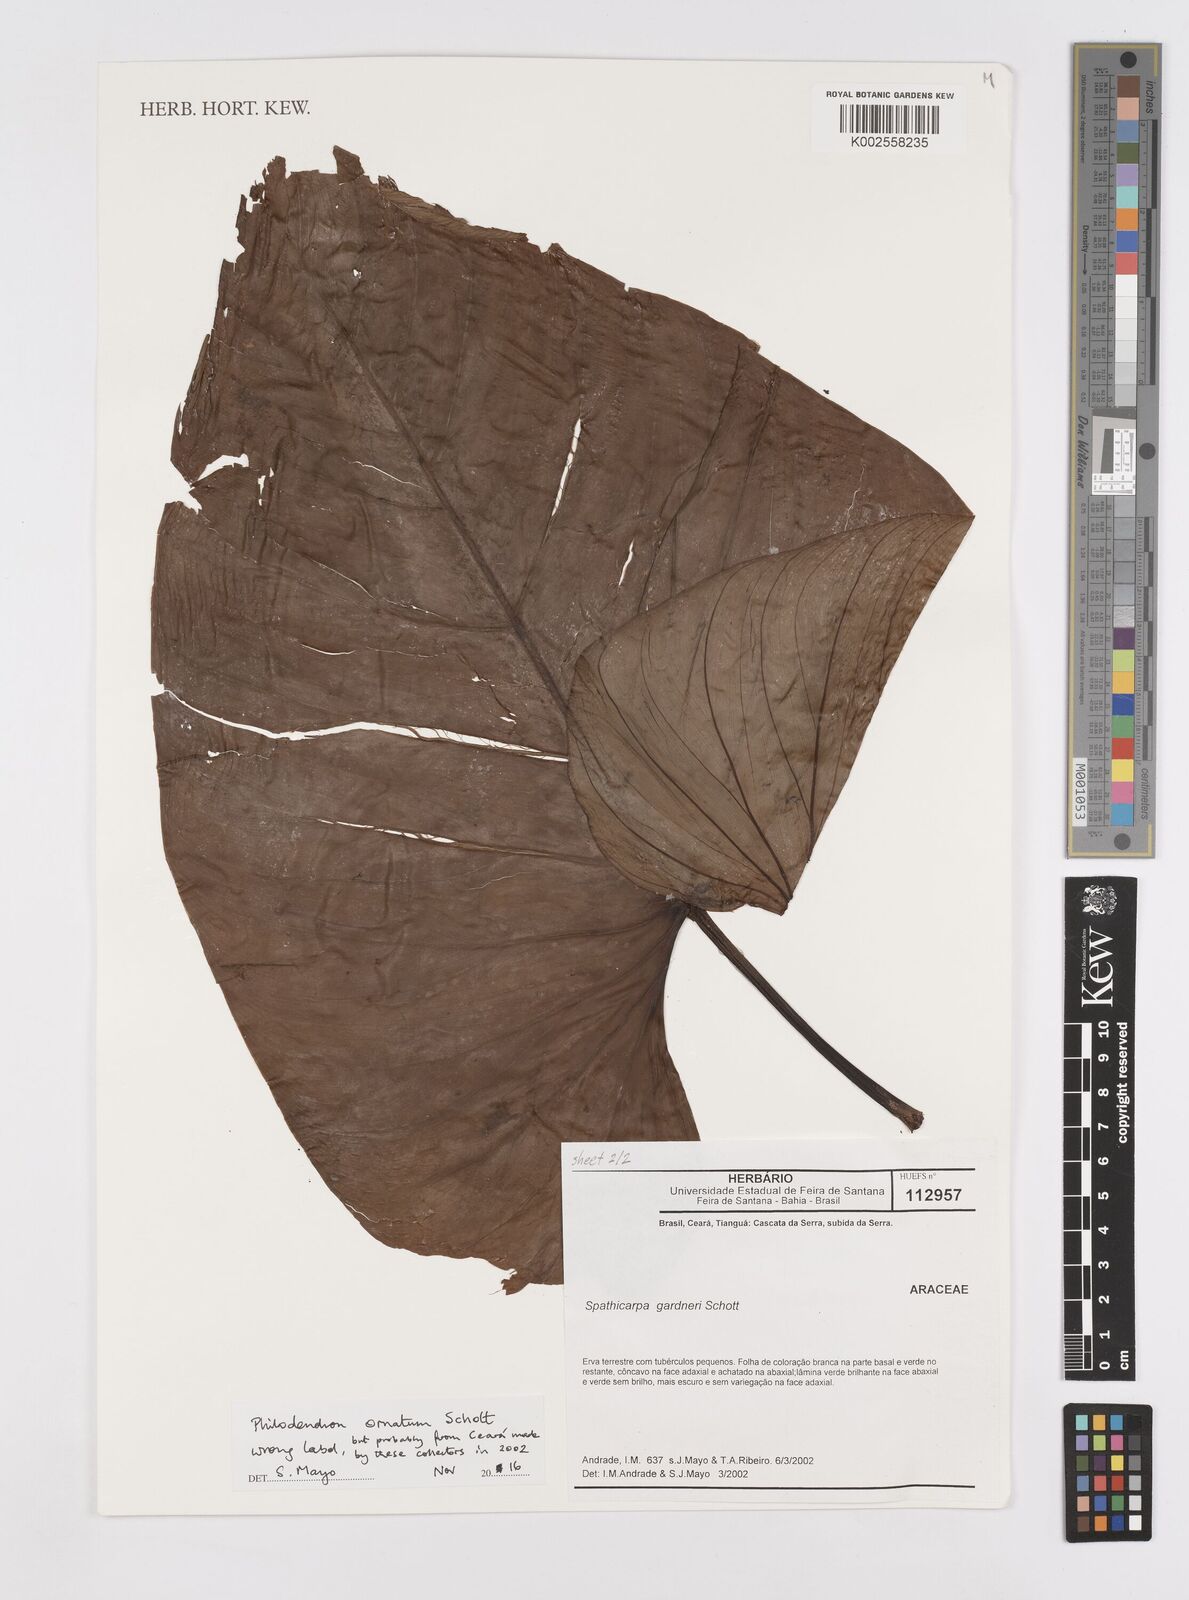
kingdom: Plantae
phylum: Tracheophyta
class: Liliopsida
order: Alismatales
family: Araceae
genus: Philodendron
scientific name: Philodendron ornatum
